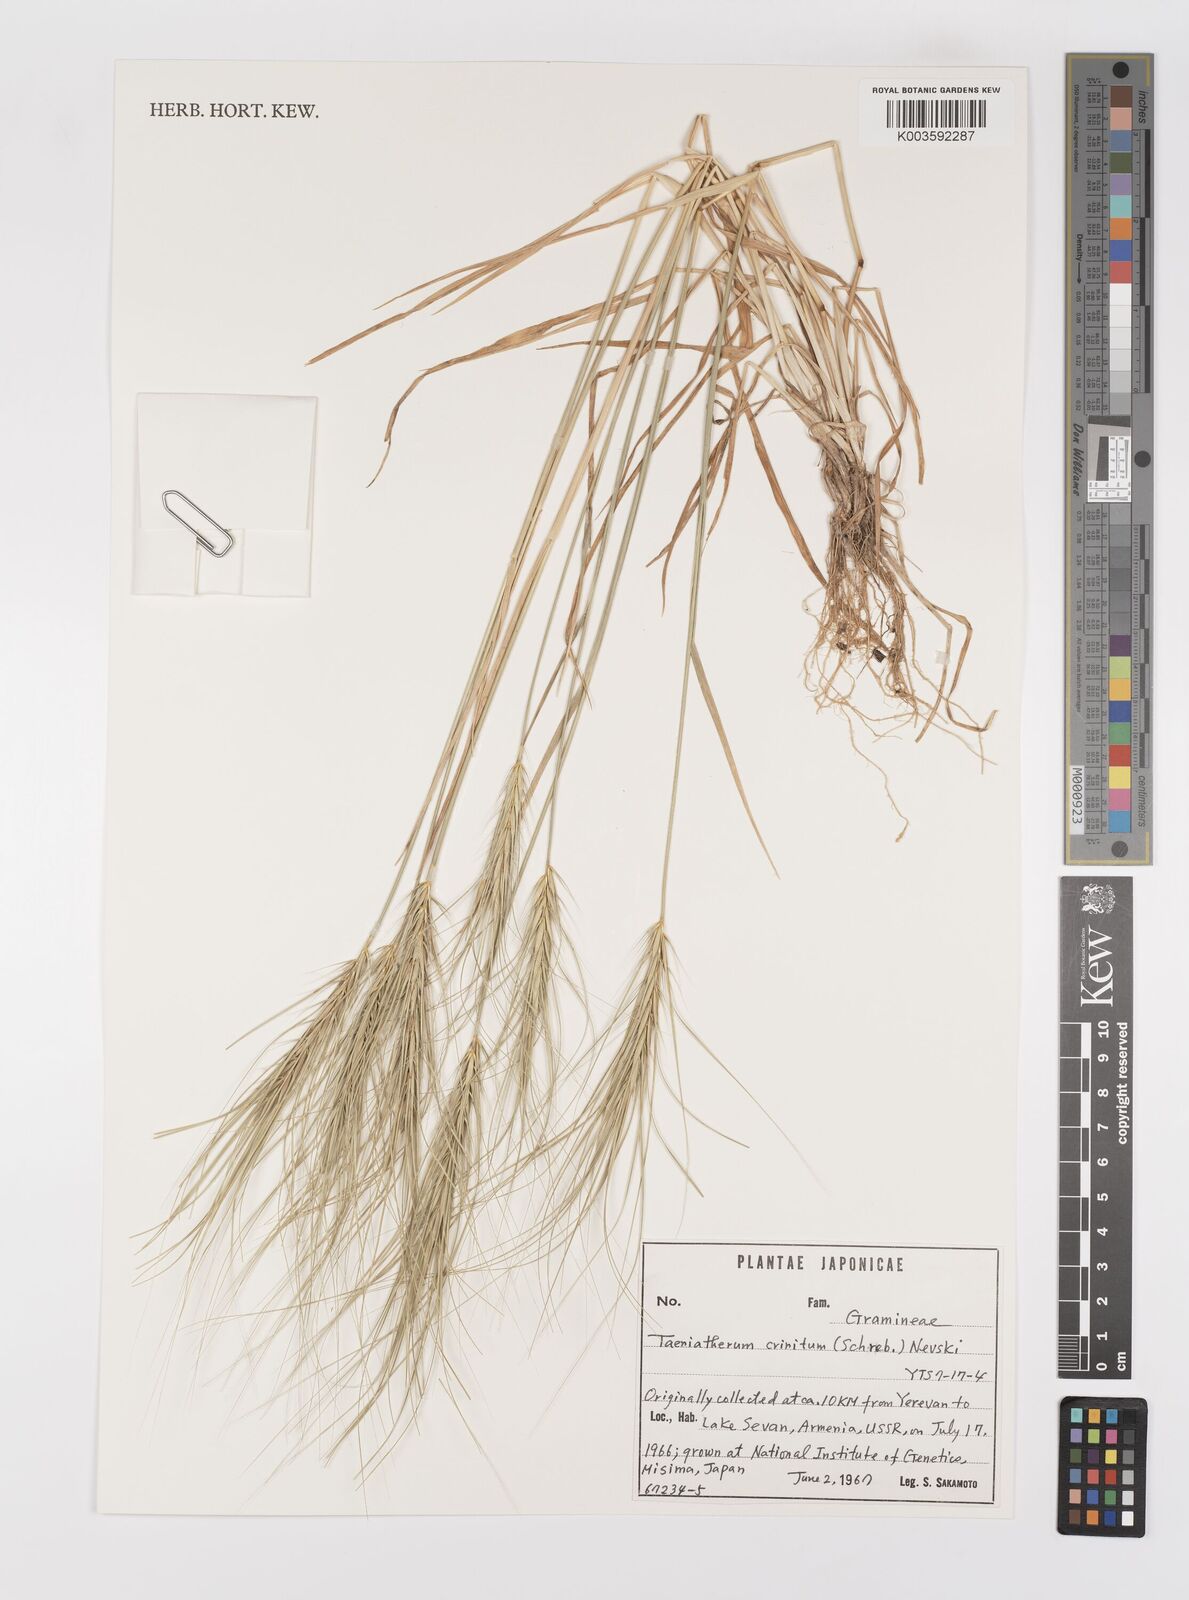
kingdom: Plantae
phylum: Tracheophyta
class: Liliopsida
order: Poales
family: Poaceae
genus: Taeniatherum
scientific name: Taeniatherum caput-medusae
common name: Medusahead
